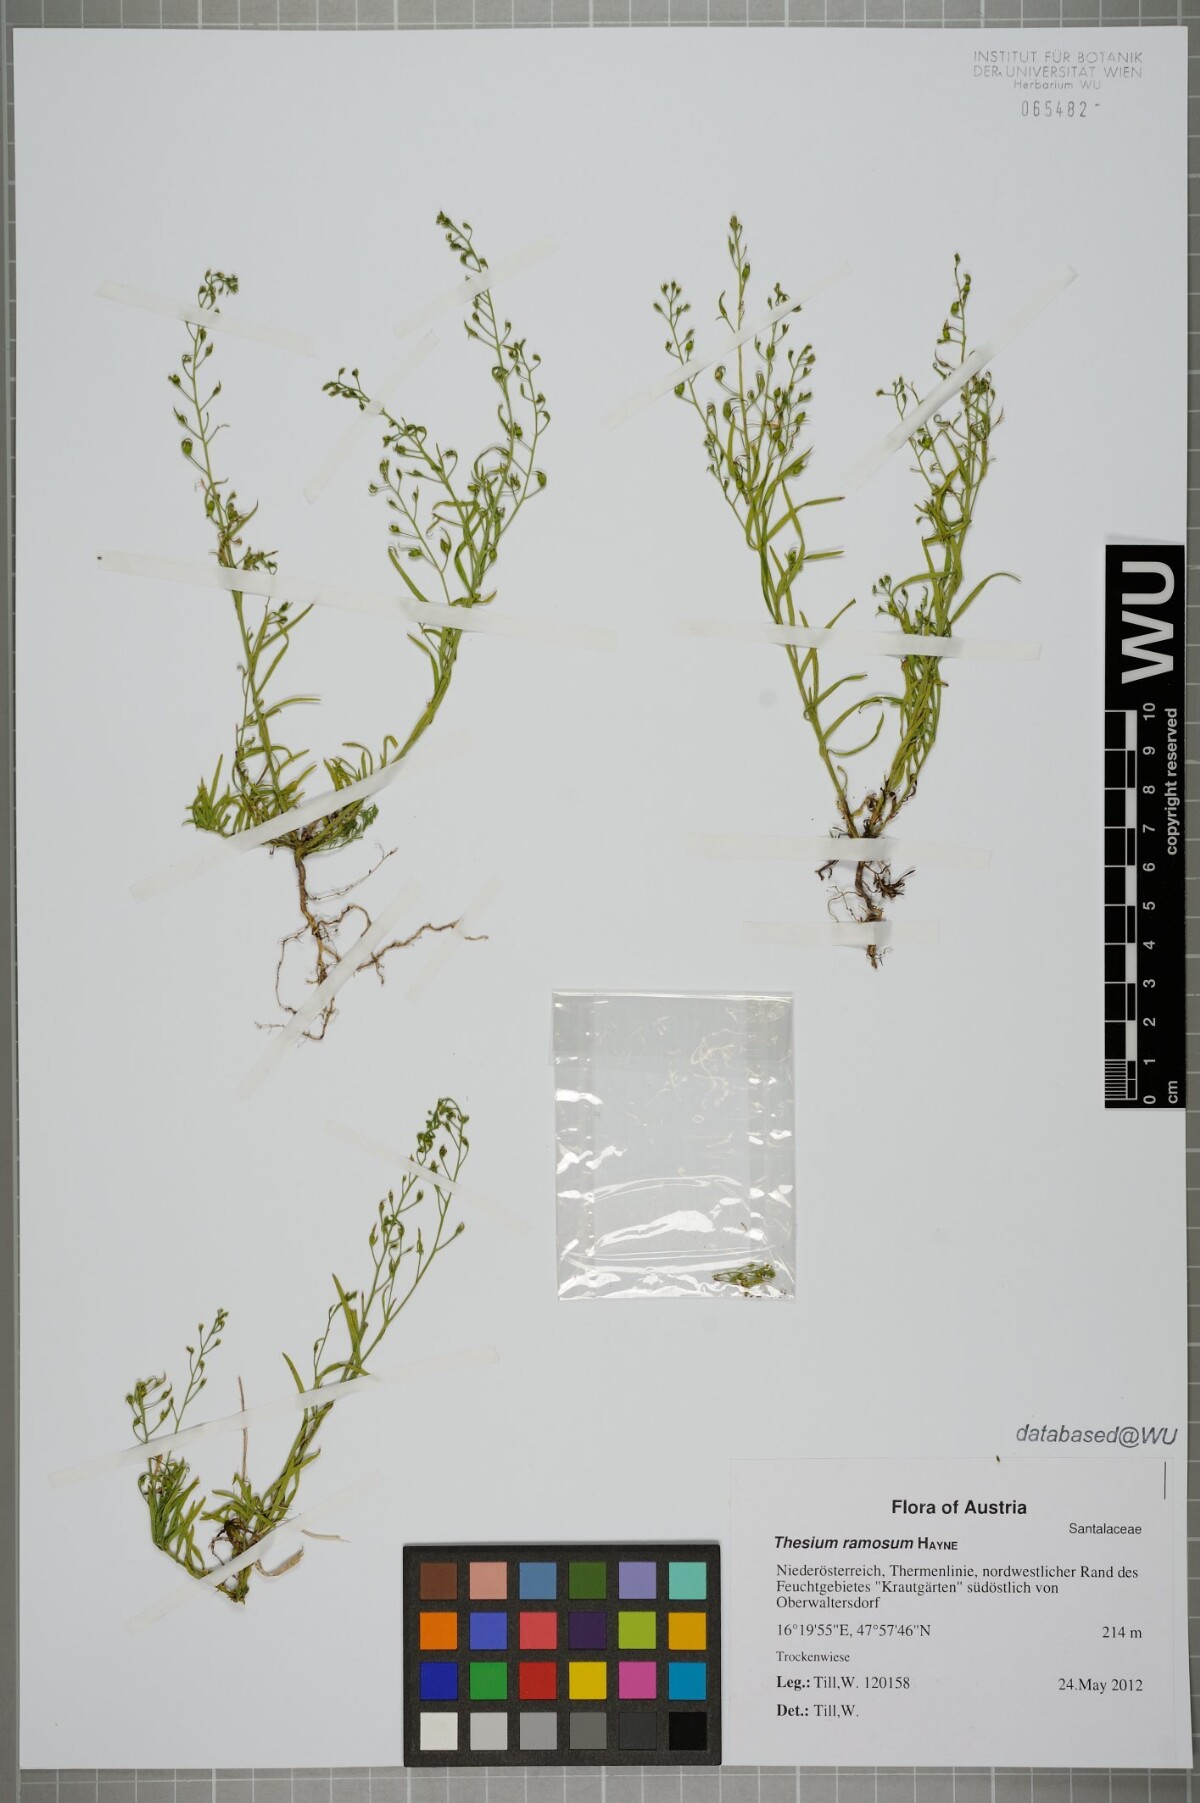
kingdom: Plantae
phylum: Tracheophyta
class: Magnoliopsida
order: Santalales
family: Thesiaceae
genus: Thesium
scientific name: Thesium ramosum
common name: Field thesium
